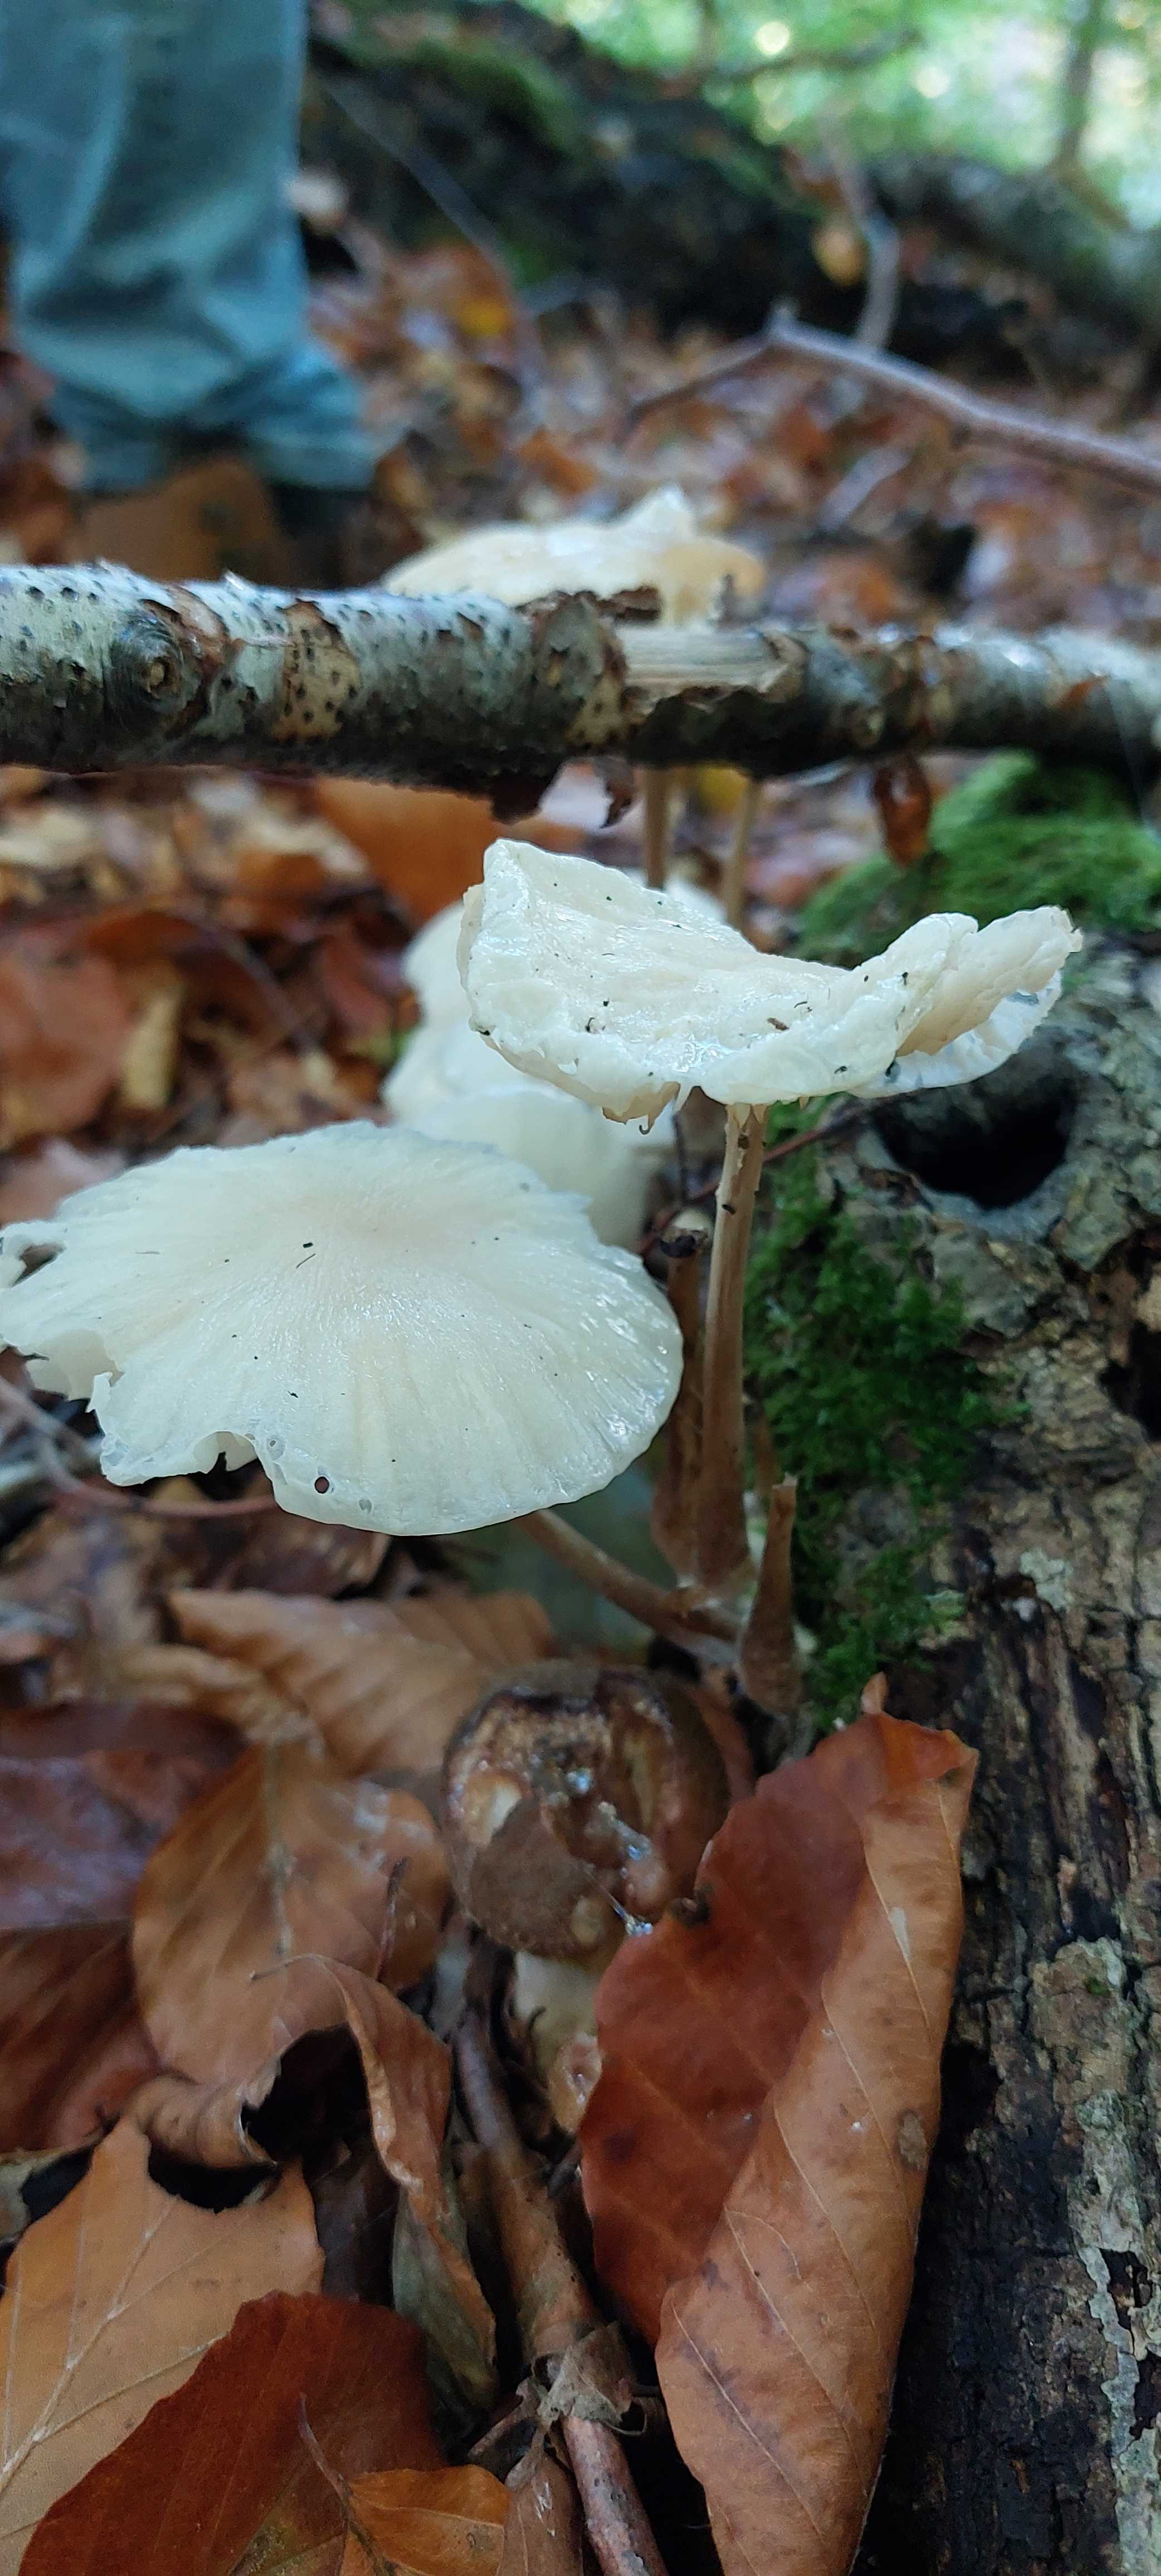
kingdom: Fungi
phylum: Basidiomycota
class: Agaricomycetes
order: Agaricales
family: Physalacriaceae
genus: Mucidula
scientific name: Mucidula mucida
